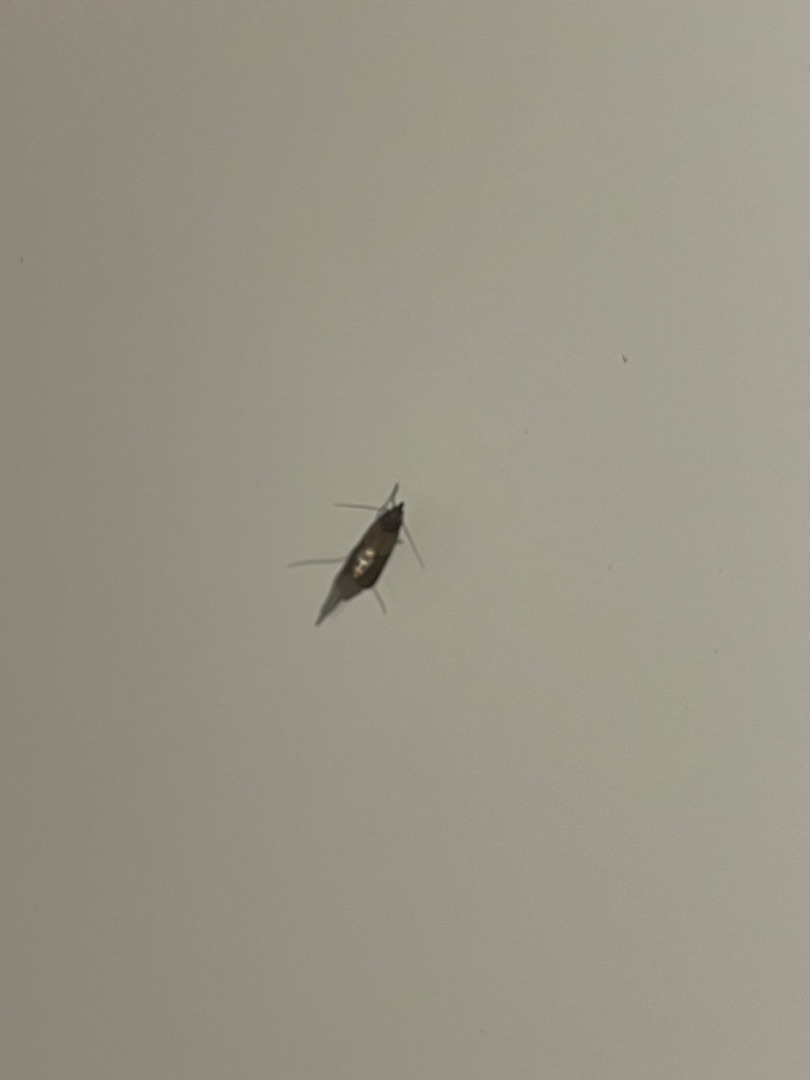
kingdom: Animalia
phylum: Arthropoda
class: Insecta
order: Lepidoptera
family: Pyralidae
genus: Plodia
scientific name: Plodia interpunctella
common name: Tofarvet frømøl
